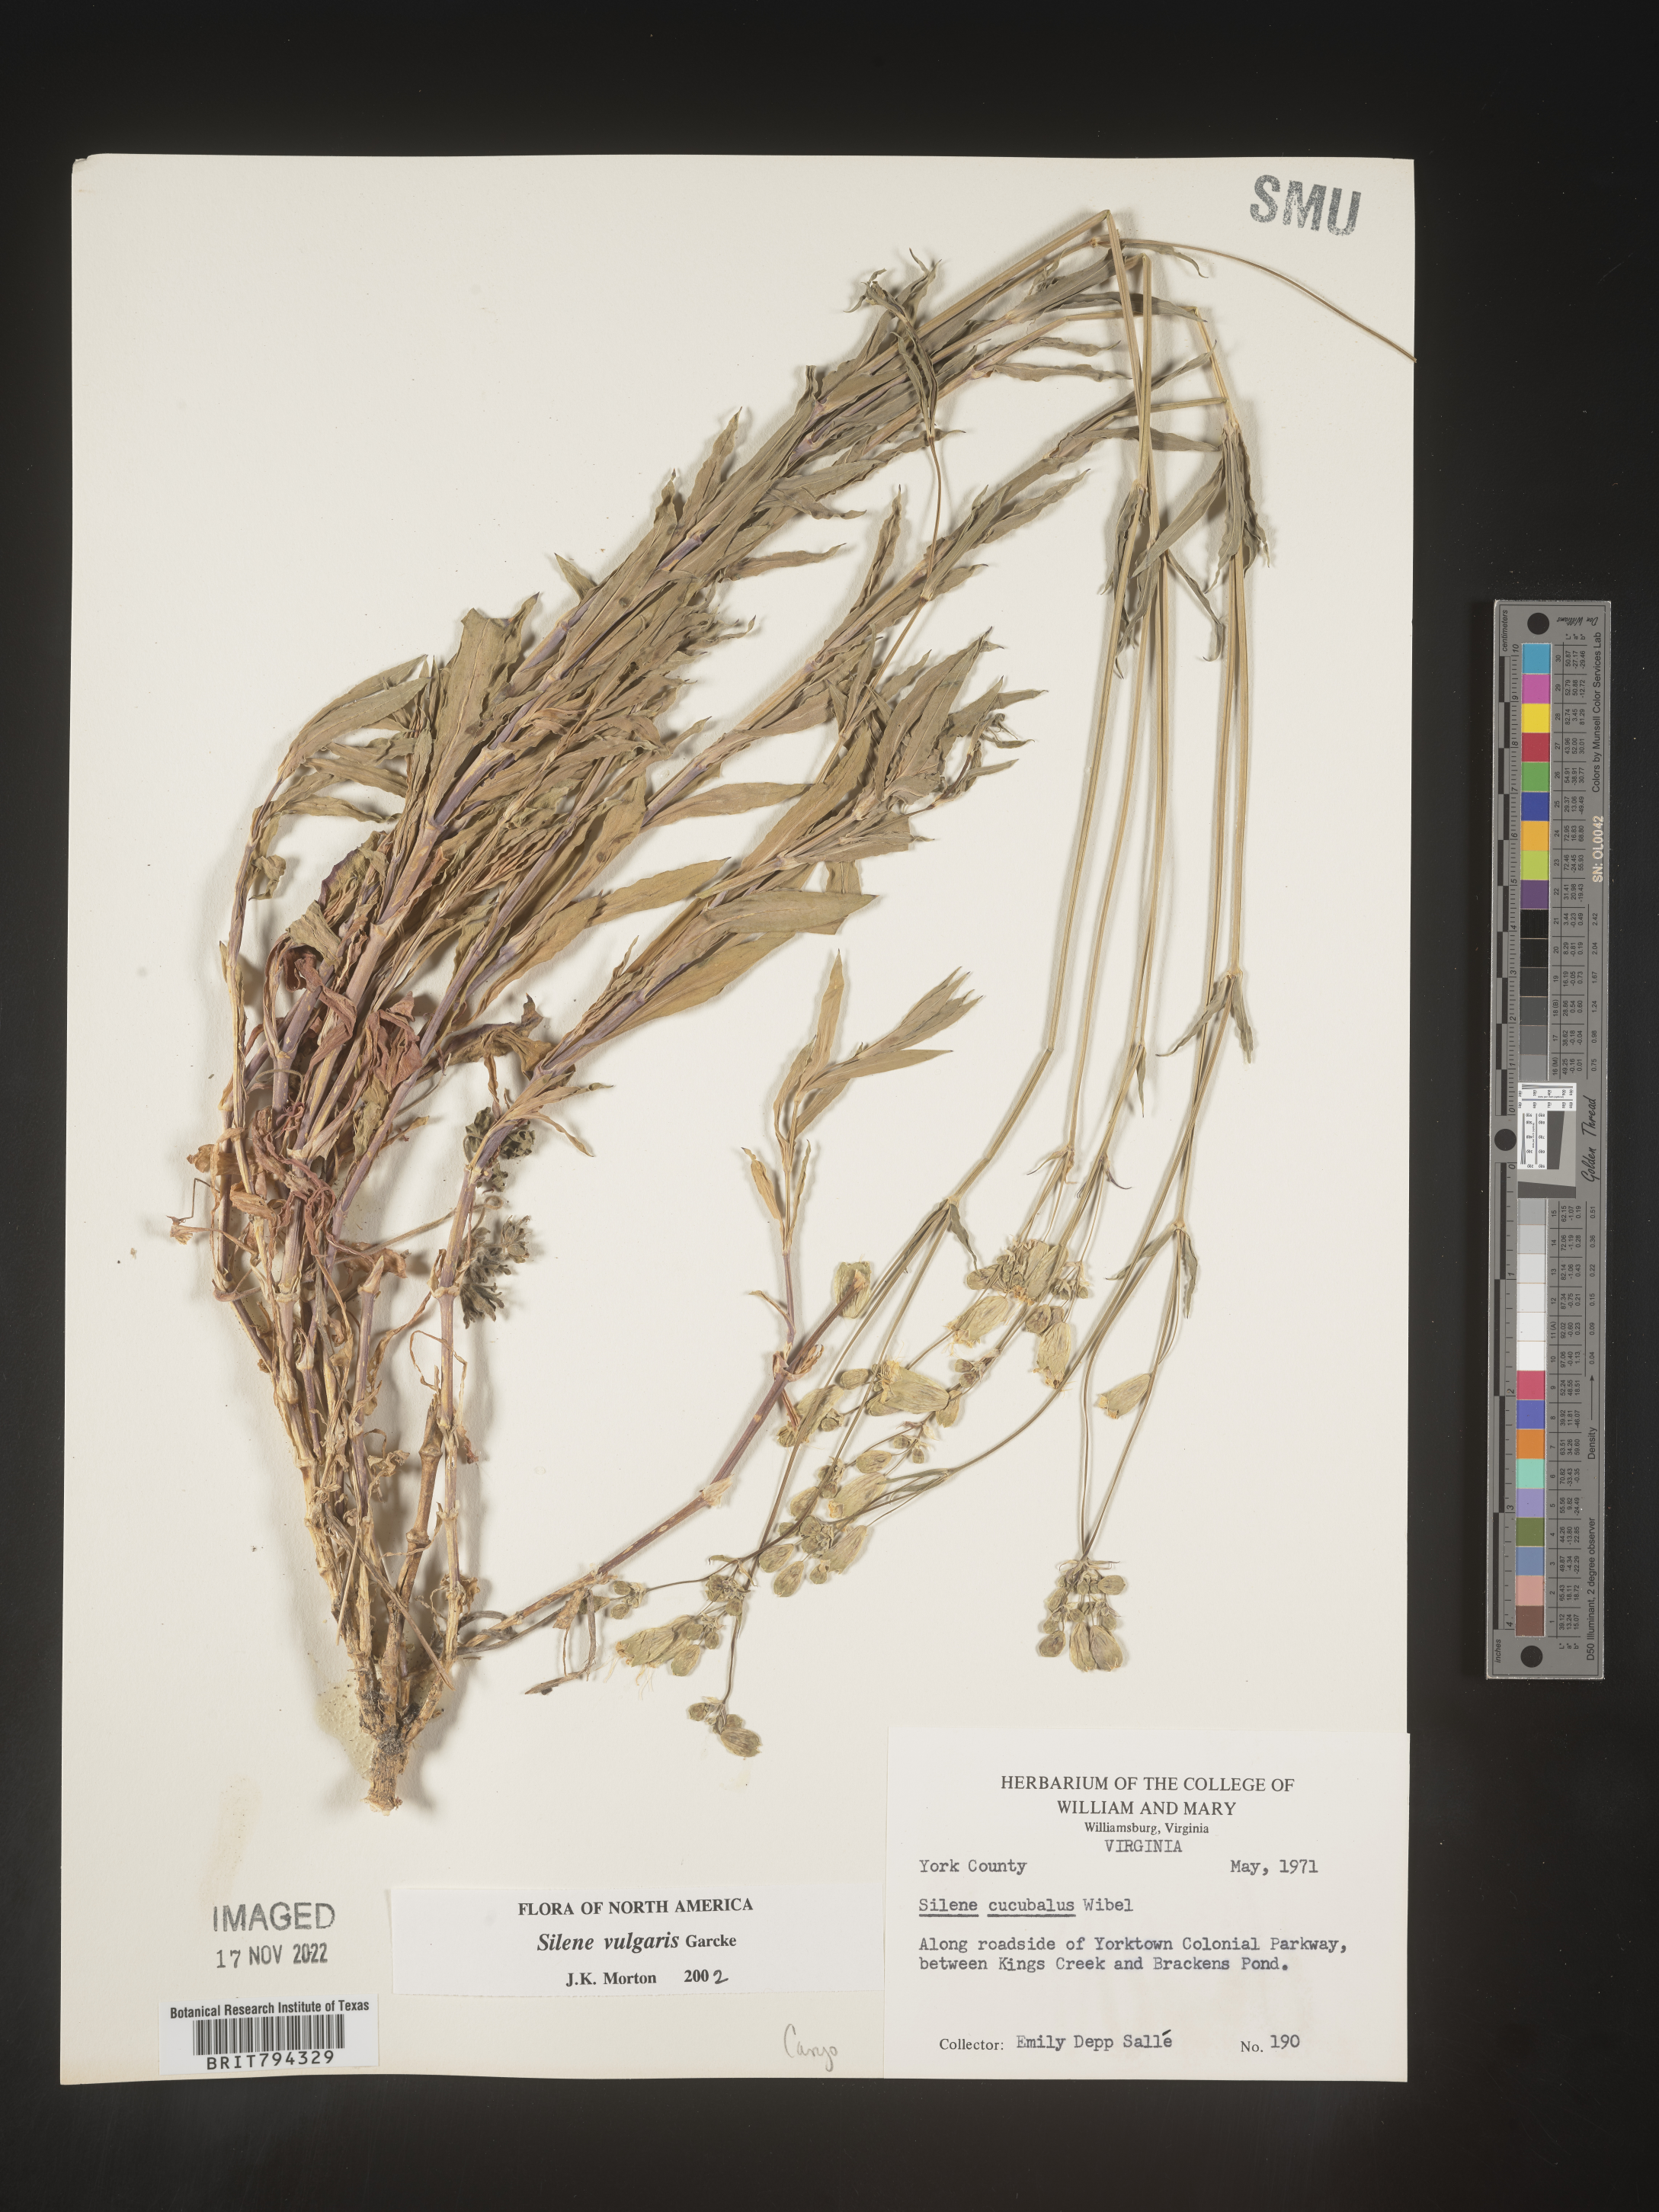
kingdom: Plantae
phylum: Tracheophyta
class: Magnoliopsida
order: Caryophyllales
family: Caryophyllaceae
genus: Silene
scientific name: Silene vulgaris
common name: Bladder campion
